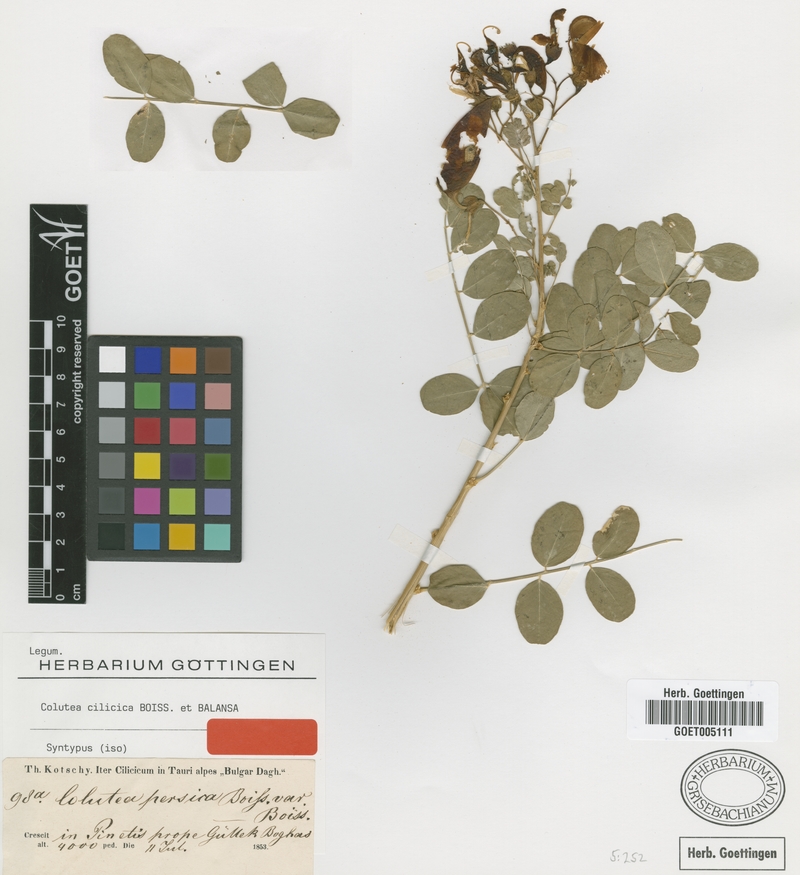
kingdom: Plantae
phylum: Tracheophyta
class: Magnoliopsida
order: Fabales
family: Fabaceae
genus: Colutea
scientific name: Colutea cilicica
